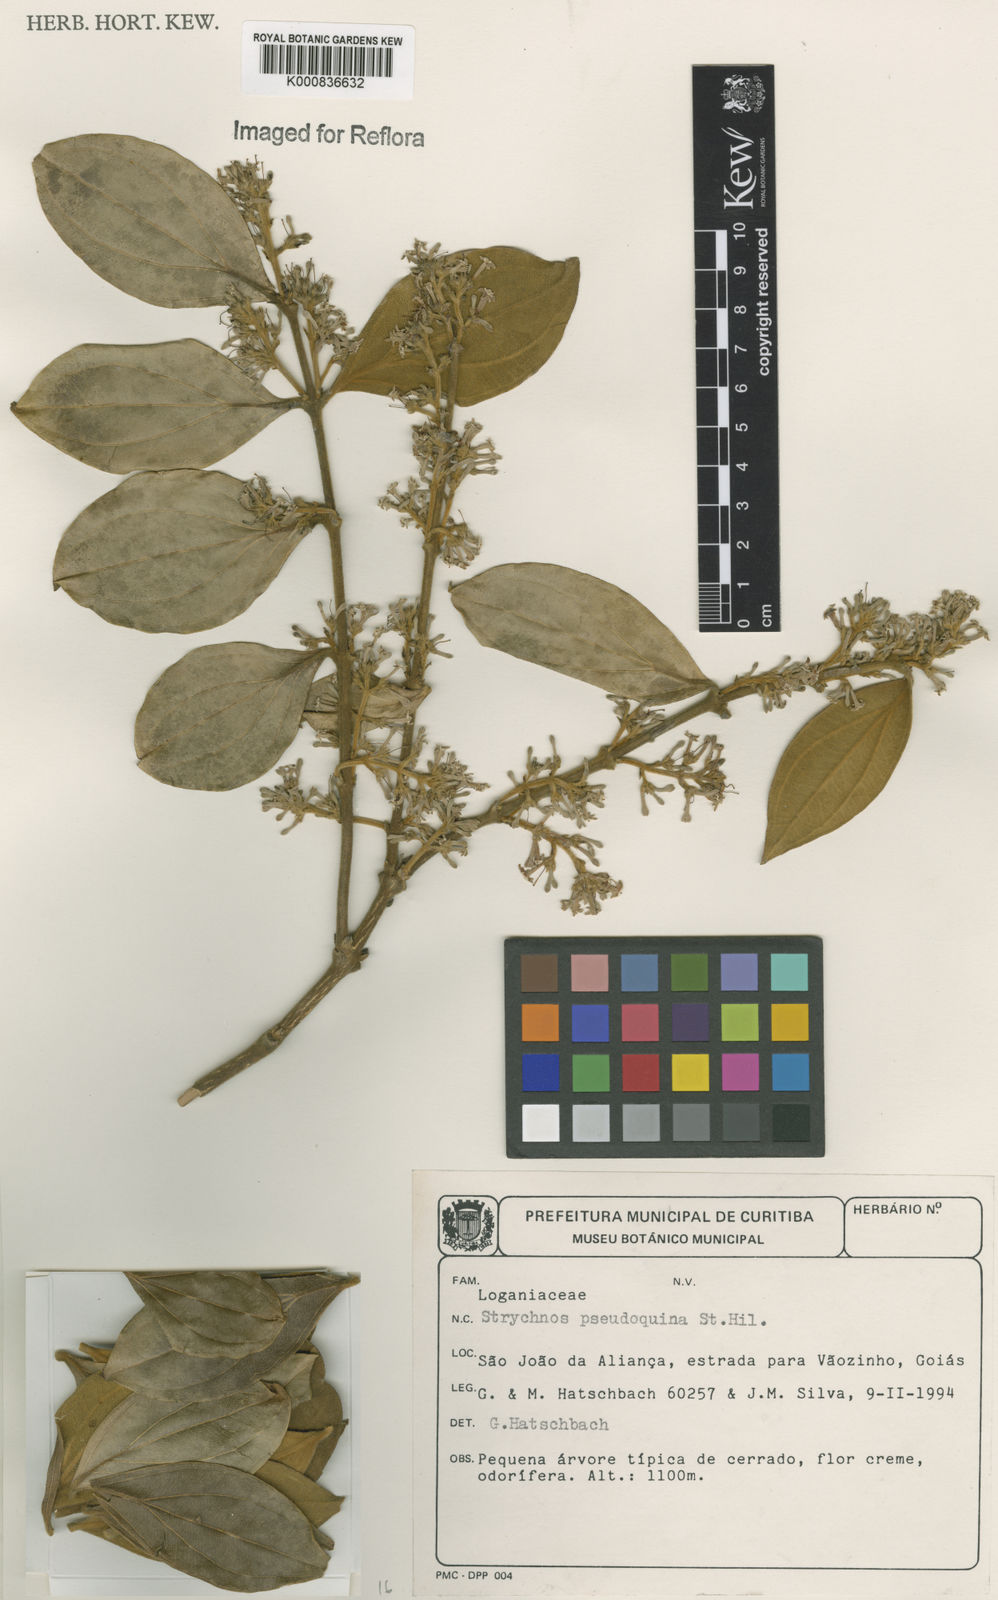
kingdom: Plantae
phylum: Tracheophyta
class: Magnoliopsida
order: Gentianales
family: Loganiaceae
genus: Strychnos
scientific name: Strychnos pseudoquina
